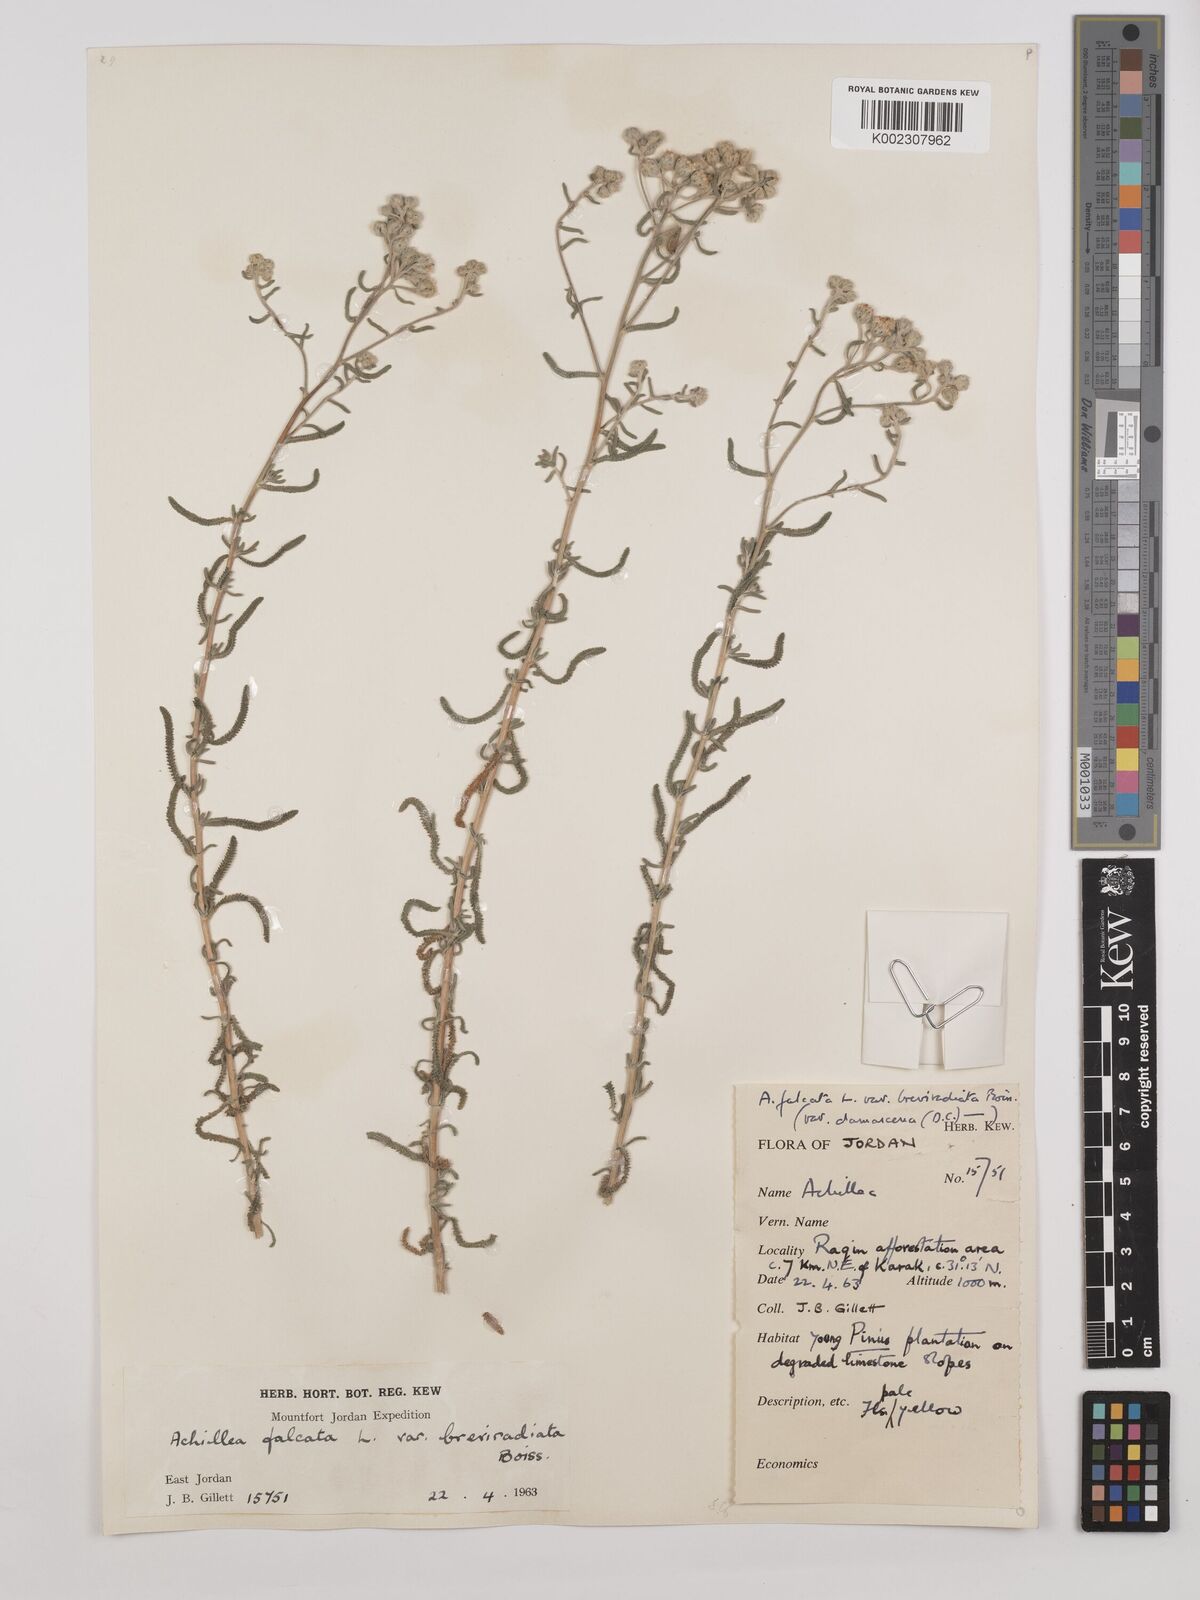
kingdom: Plantae
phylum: Tracheophyta
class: Magnoliopsida
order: Asterales
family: Asteraceae
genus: Achillea
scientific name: Achillea falcata
